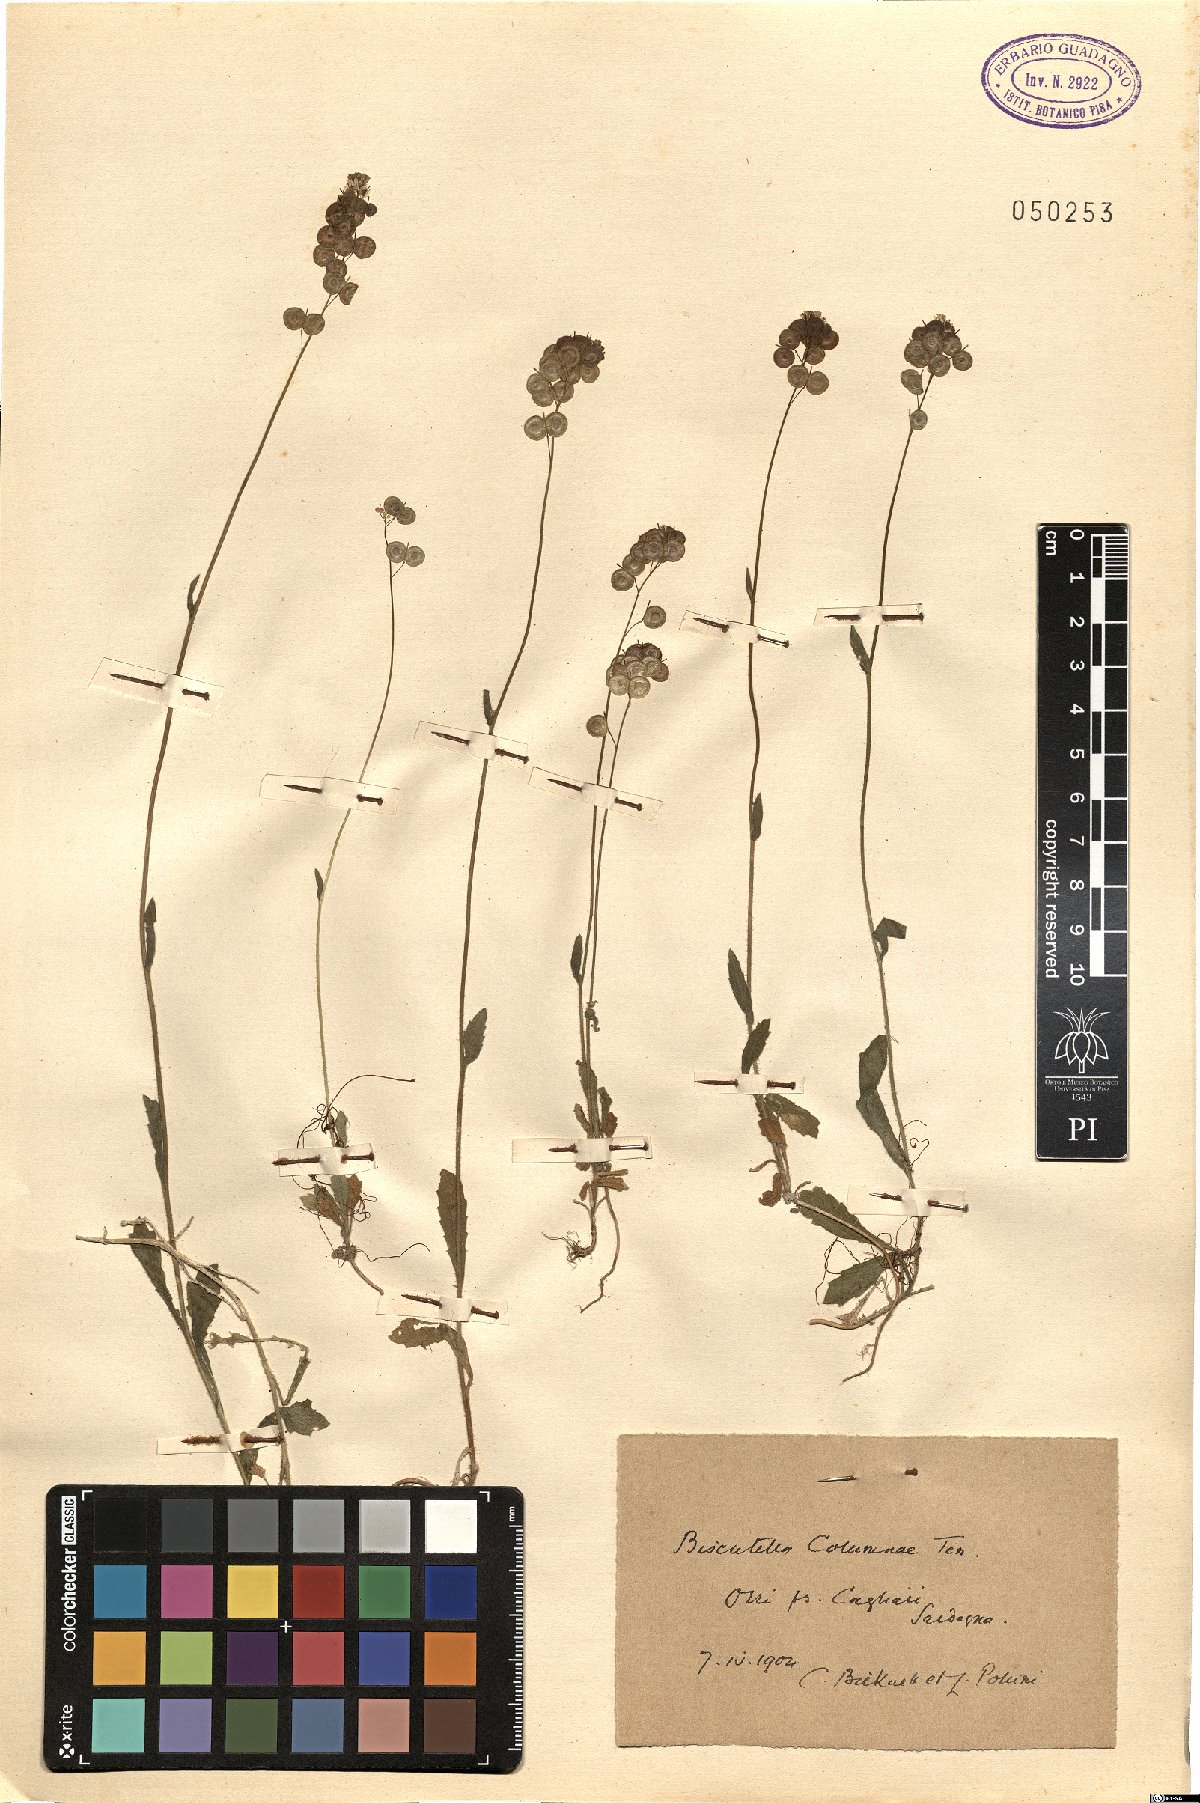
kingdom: Plantae
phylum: Tracheophyta
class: Magnoliopsida
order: Brassicales
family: Brassicaceae
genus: Biscutella
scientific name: Biscutella didyma
